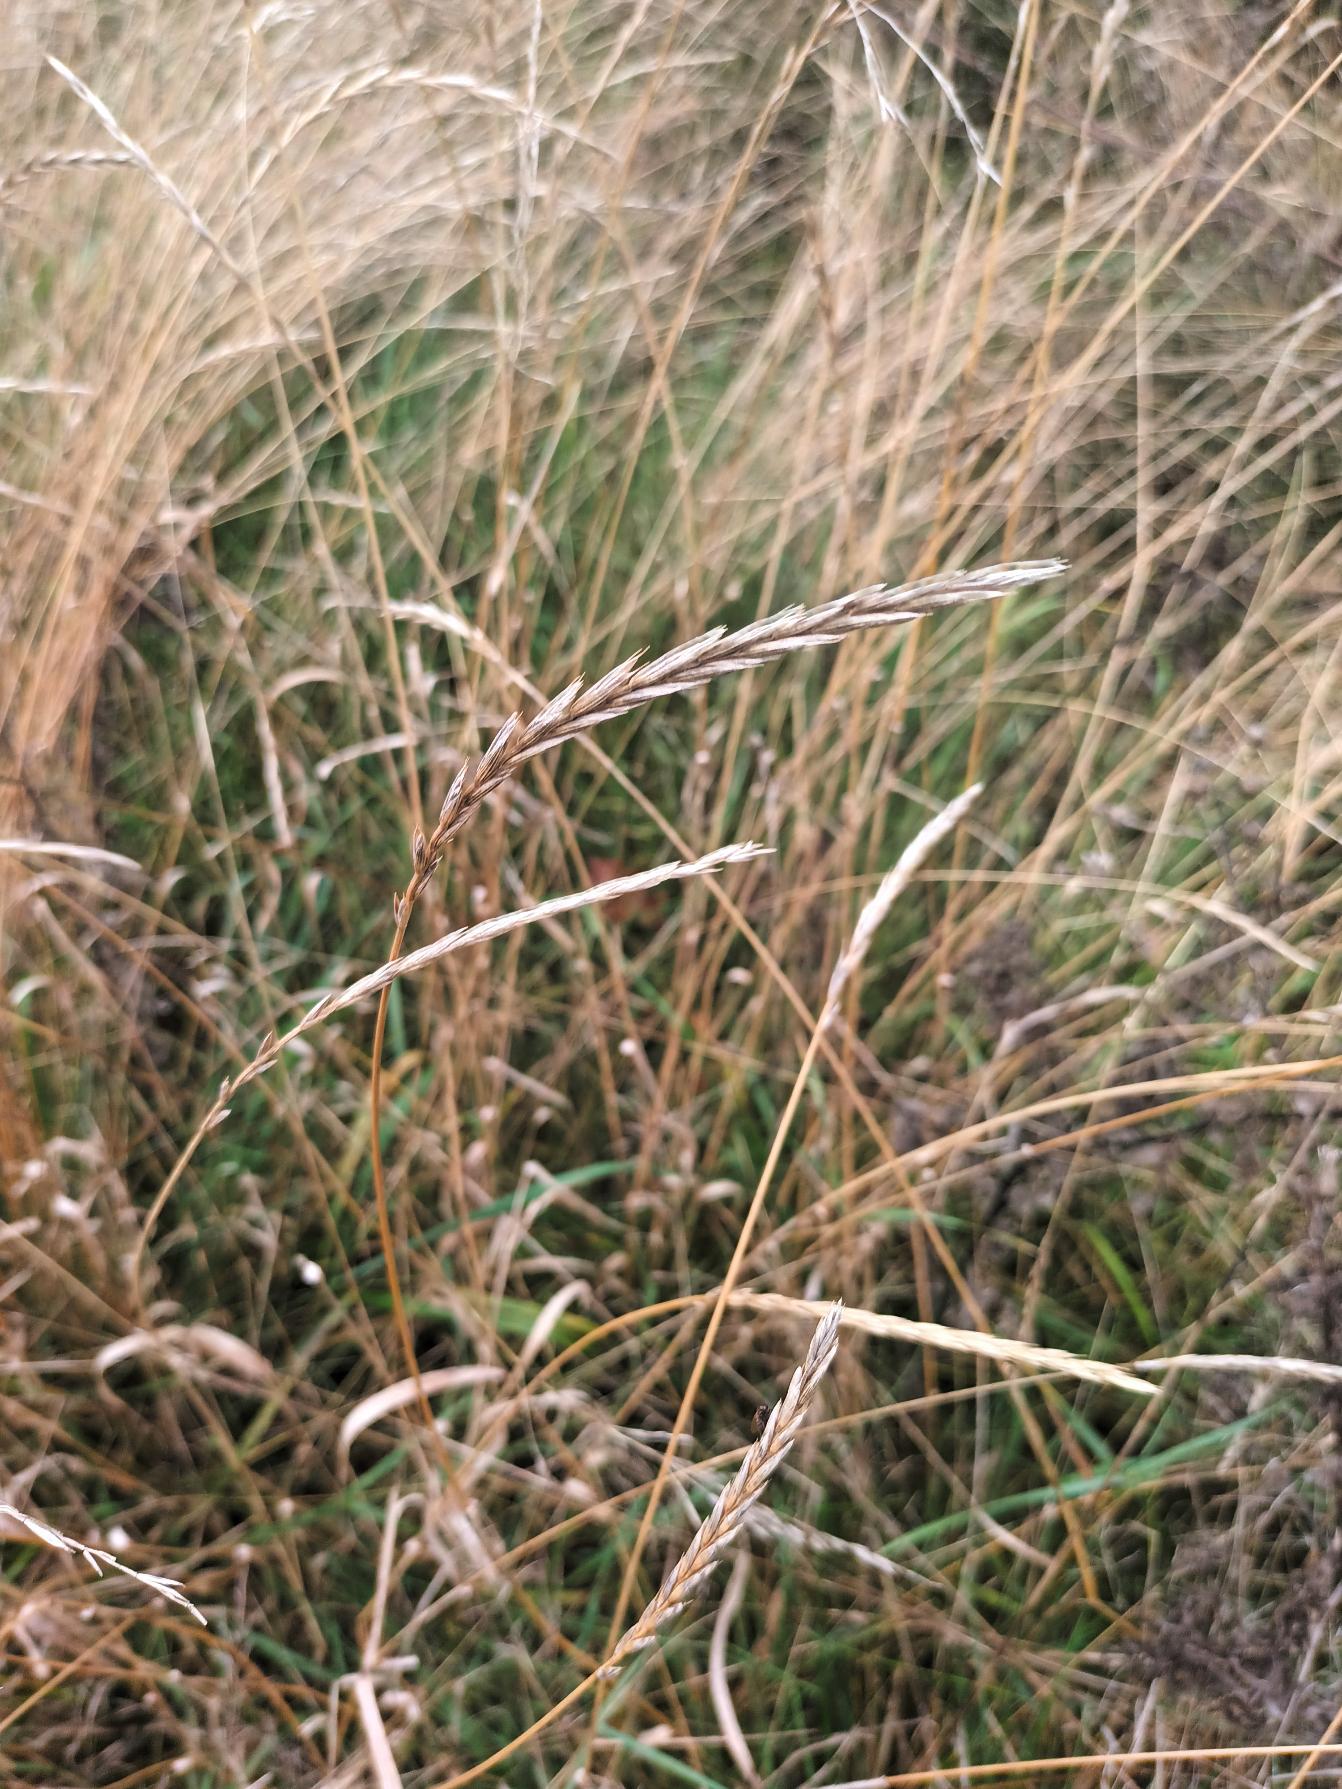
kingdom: Plantae
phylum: Tracheophyta
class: Liliopsida
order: Poales
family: Poaceae
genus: Elymus
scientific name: Elymus repens
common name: Almindelig kvik
